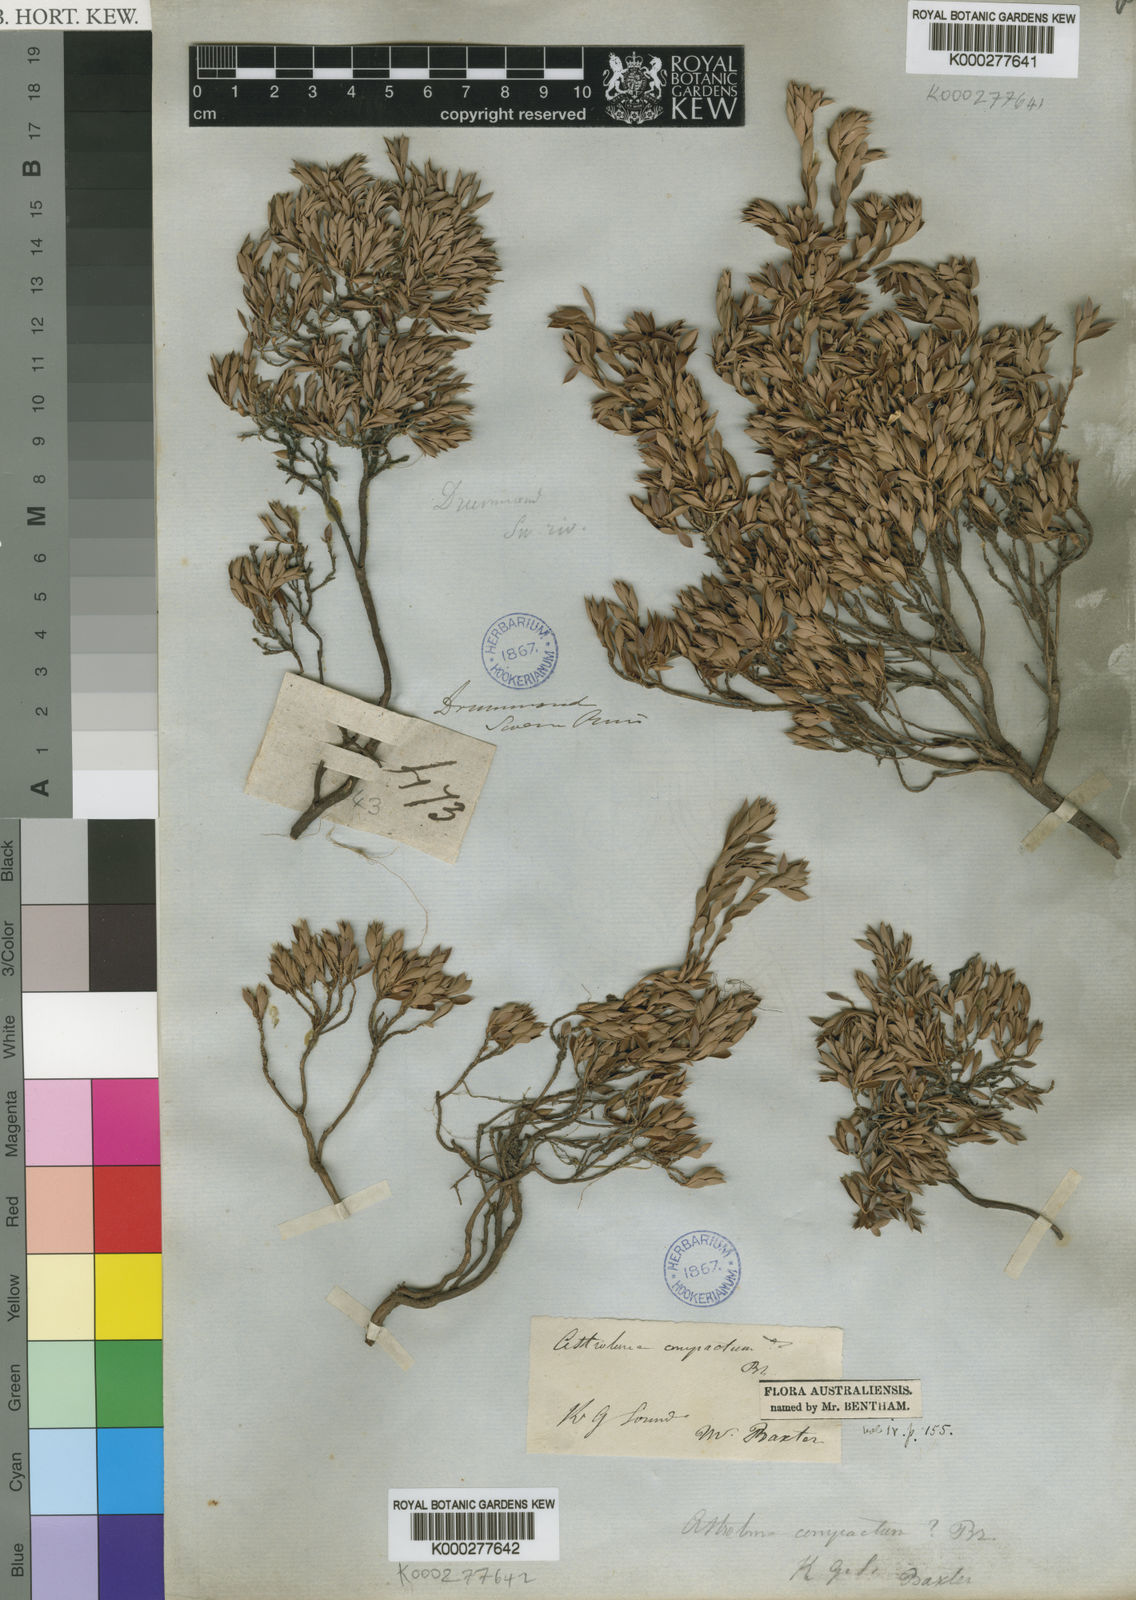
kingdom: Plantae
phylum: Tracheophyta
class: Magnoliopsida
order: Ericales
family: Ericaceae
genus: Styphelia
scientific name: Styphelia compacta
